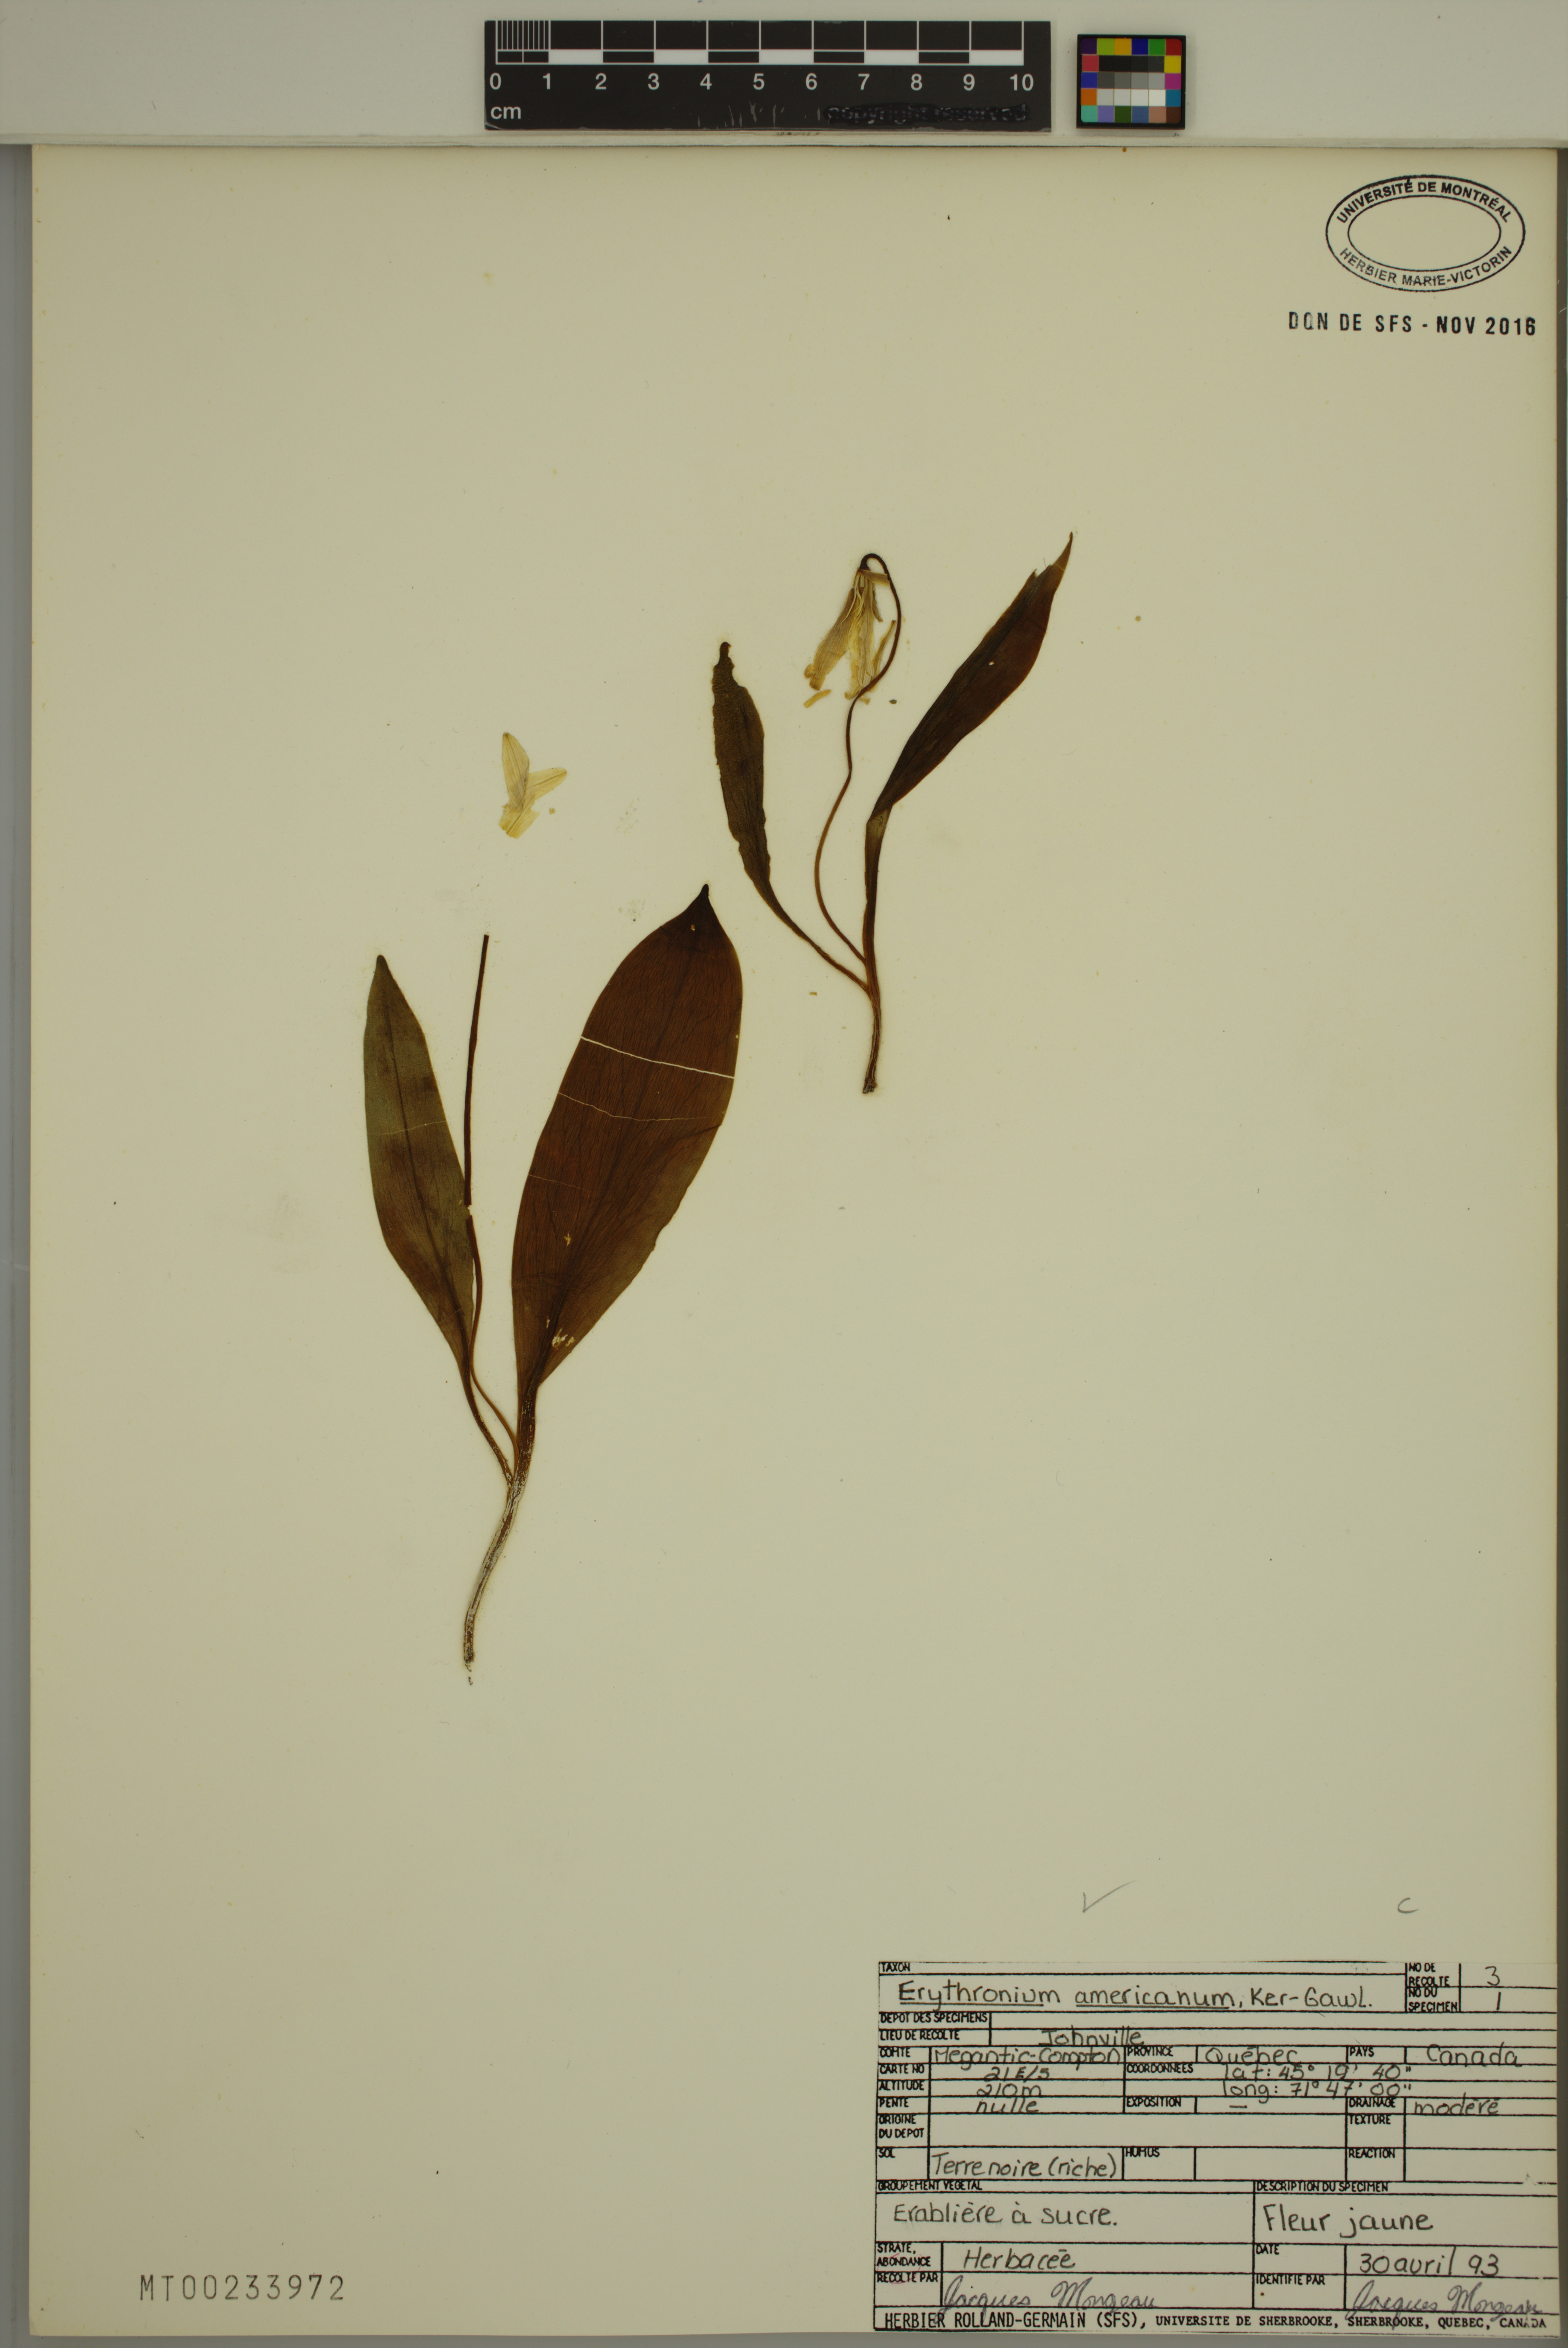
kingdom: Plantae
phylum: Tracheophyta
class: Liliopsida
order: Liliales
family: Liliaceae
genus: Erythronium
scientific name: Erythronium americanum
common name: Yellow adder's-tongue
